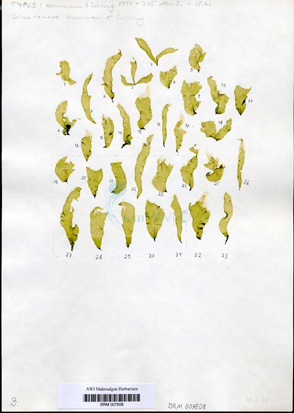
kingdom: Plantae
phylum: Chlorophyta
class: Ulvophyceae
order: Ulvales
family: Ulvaceae
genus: Ulva
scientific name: Ulva tenera
